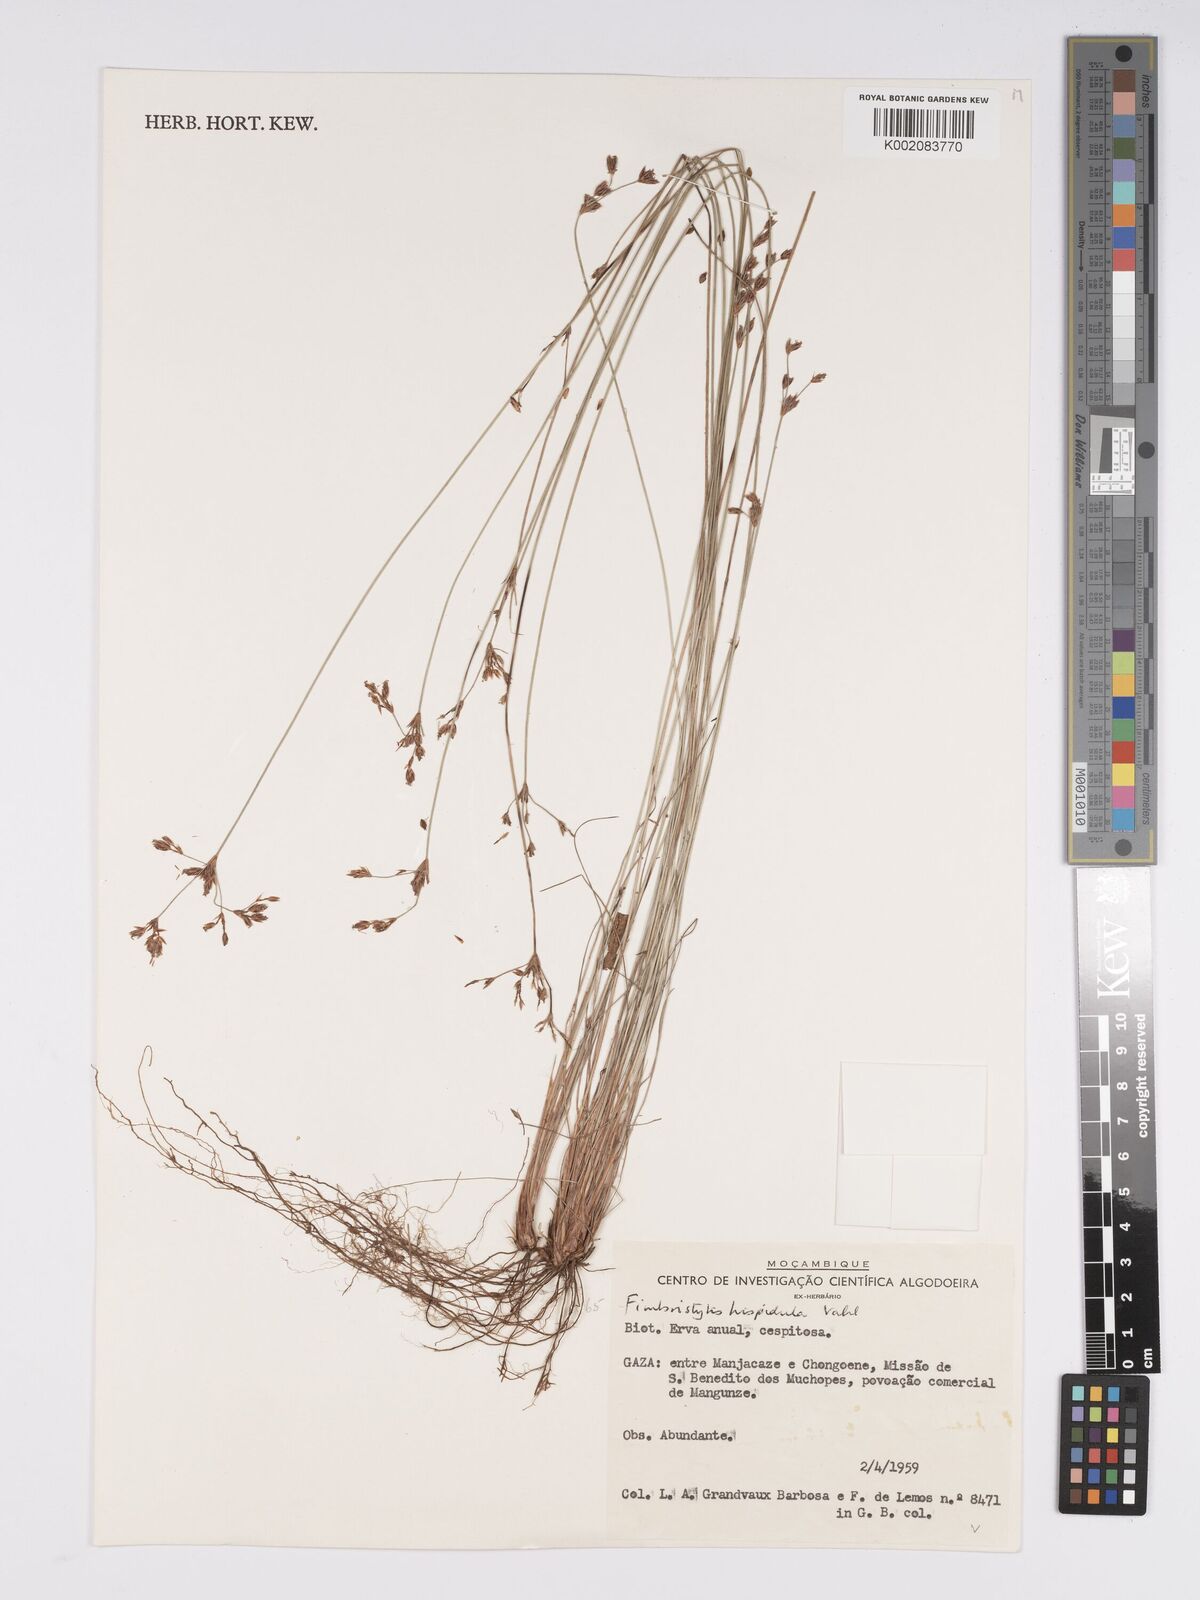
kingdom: Plantae
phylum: Tracheophyta
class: Liliopsida
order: Poales
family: Cyperaceae
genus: Bulbostylis
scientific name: Bulbostylis hispidula
